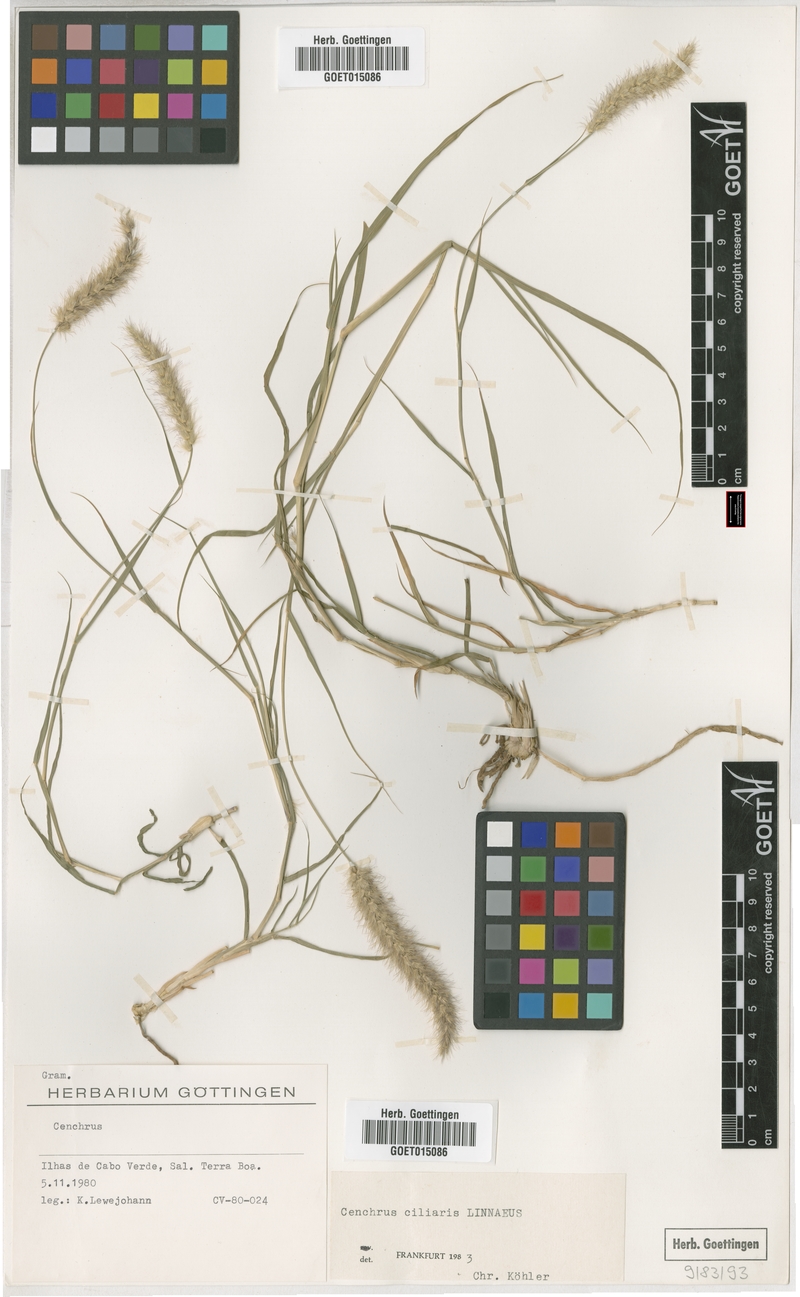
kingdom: Plantae
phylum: Tracheophyta
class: Liliopsida
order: Poales
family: Poaceae
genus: Cenchrus
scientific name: Cenchrus ciliaris
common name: Buffelgrass
